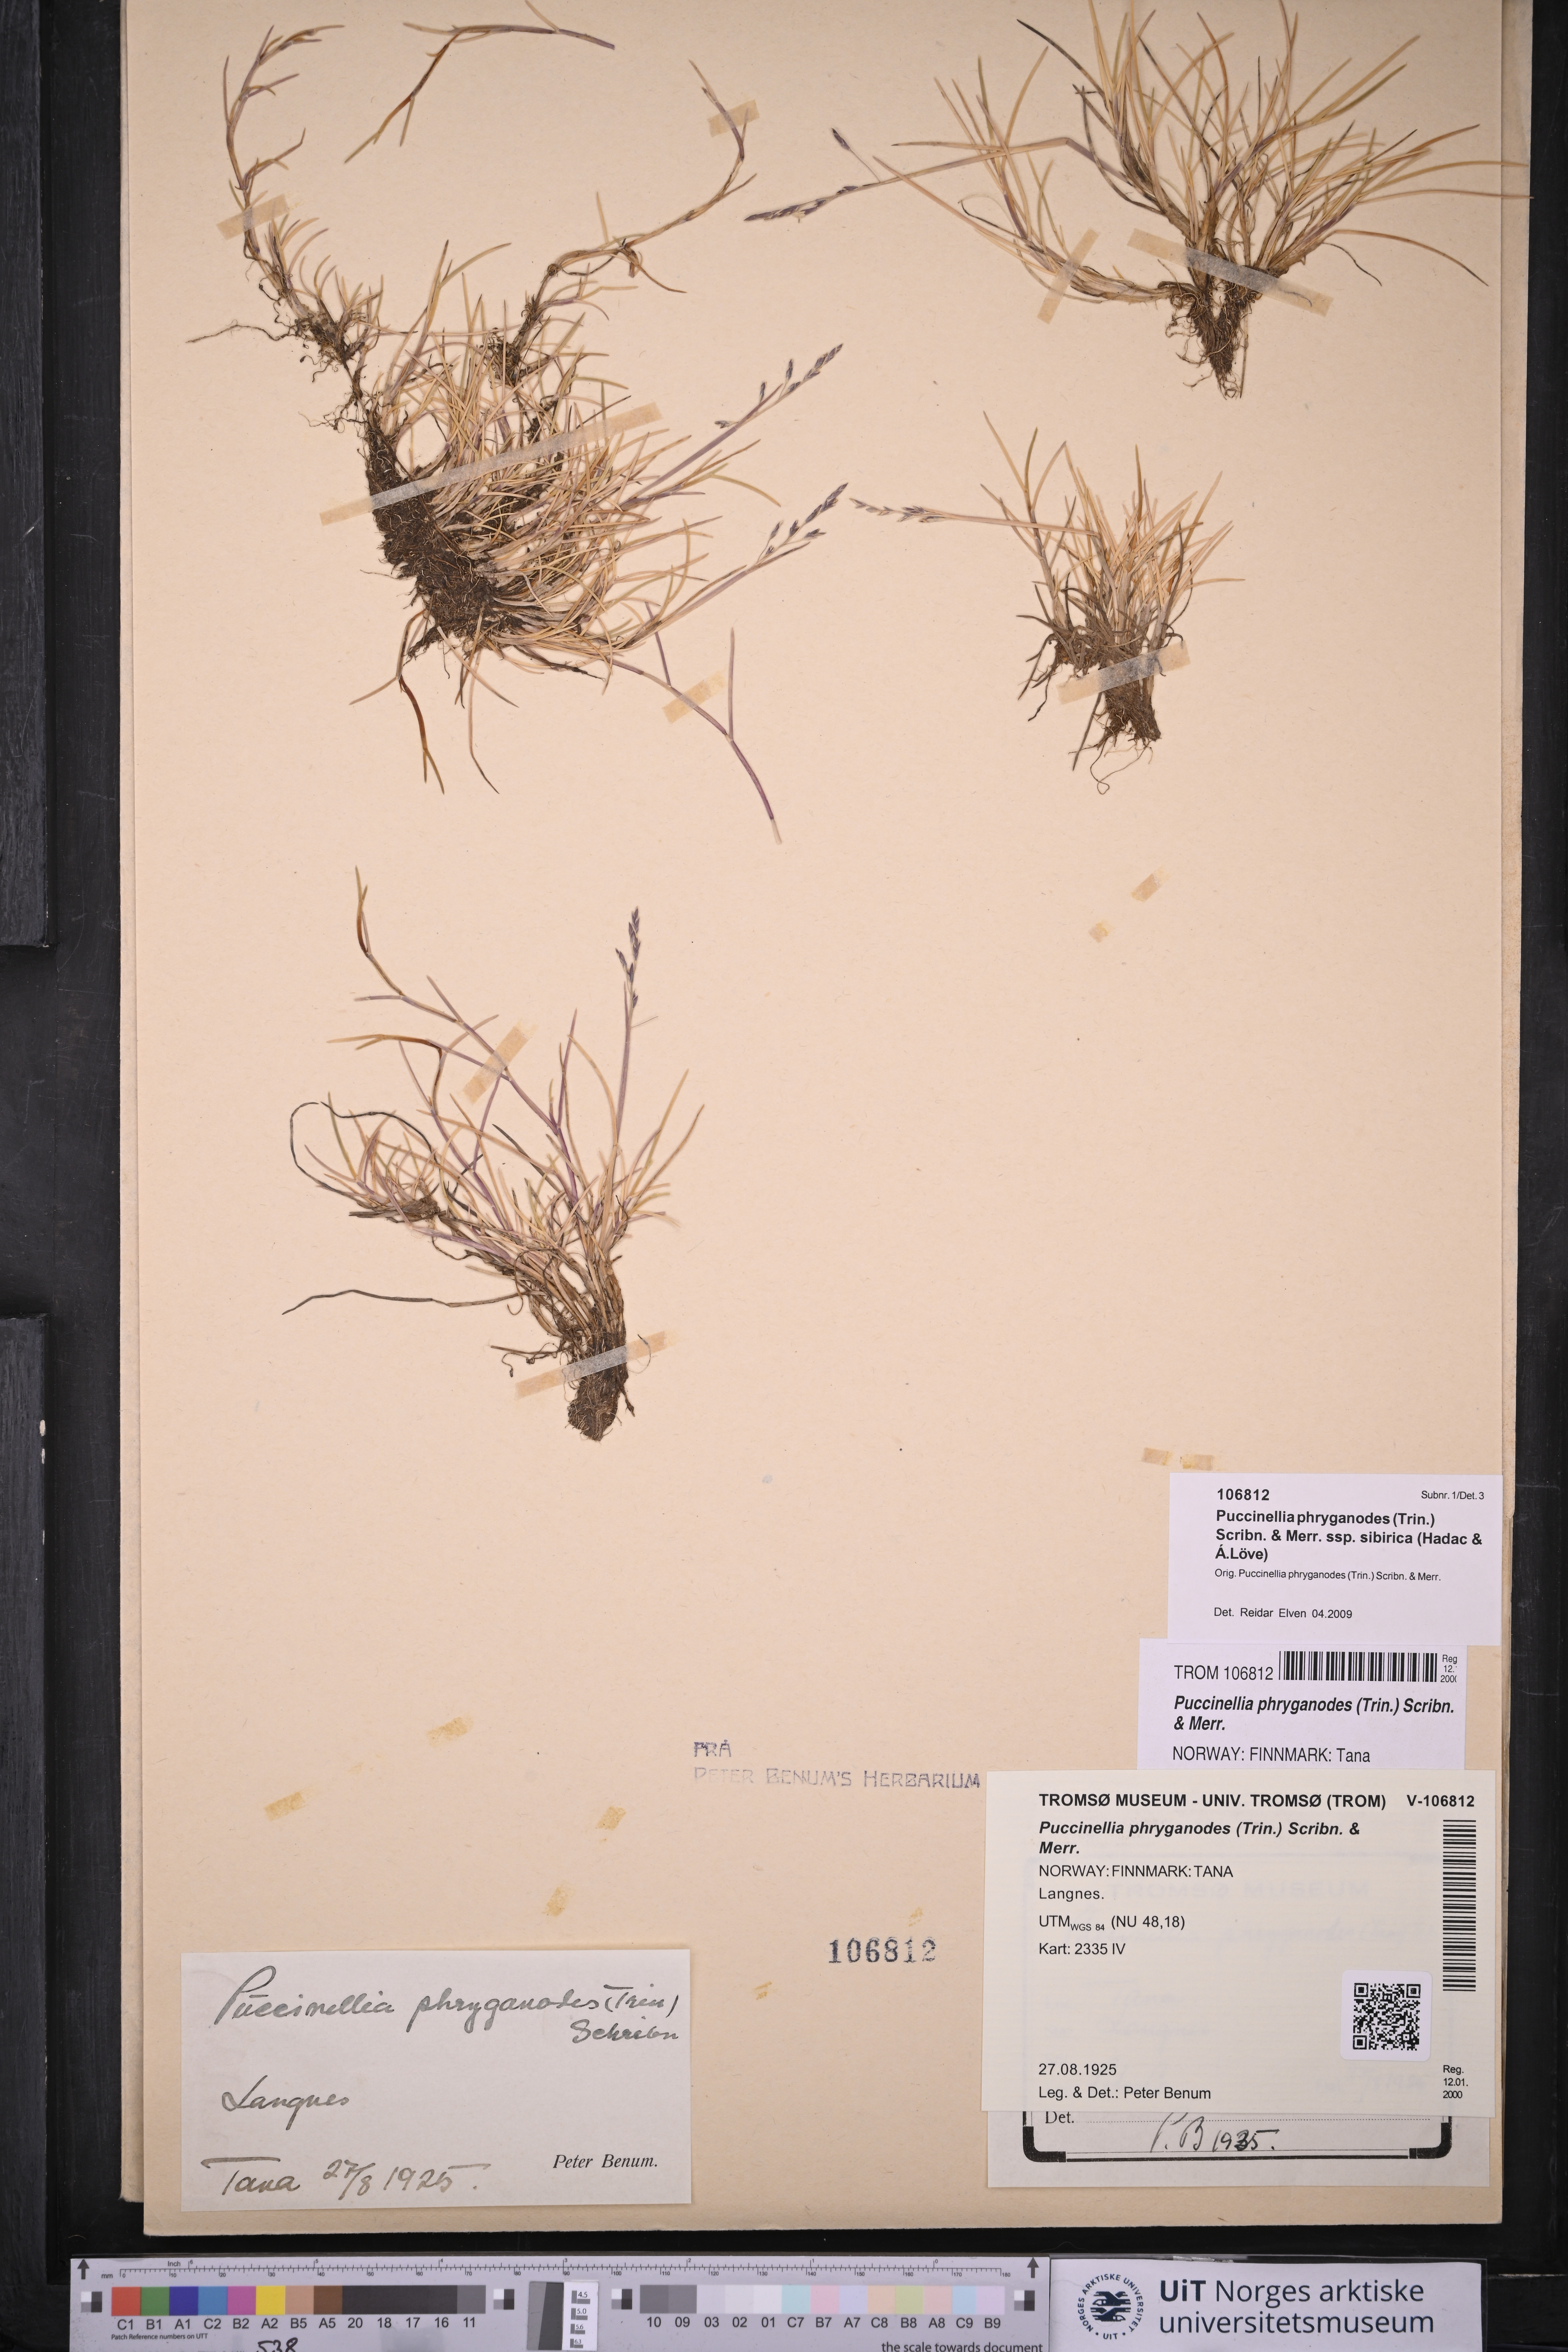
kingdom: Plantae
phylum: Tracheophyta
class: Liliopsida
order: Poales
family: Poaceae
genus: Puccinellia
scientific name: Puccinellia phryganodes
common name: Creeping alkaligrass
